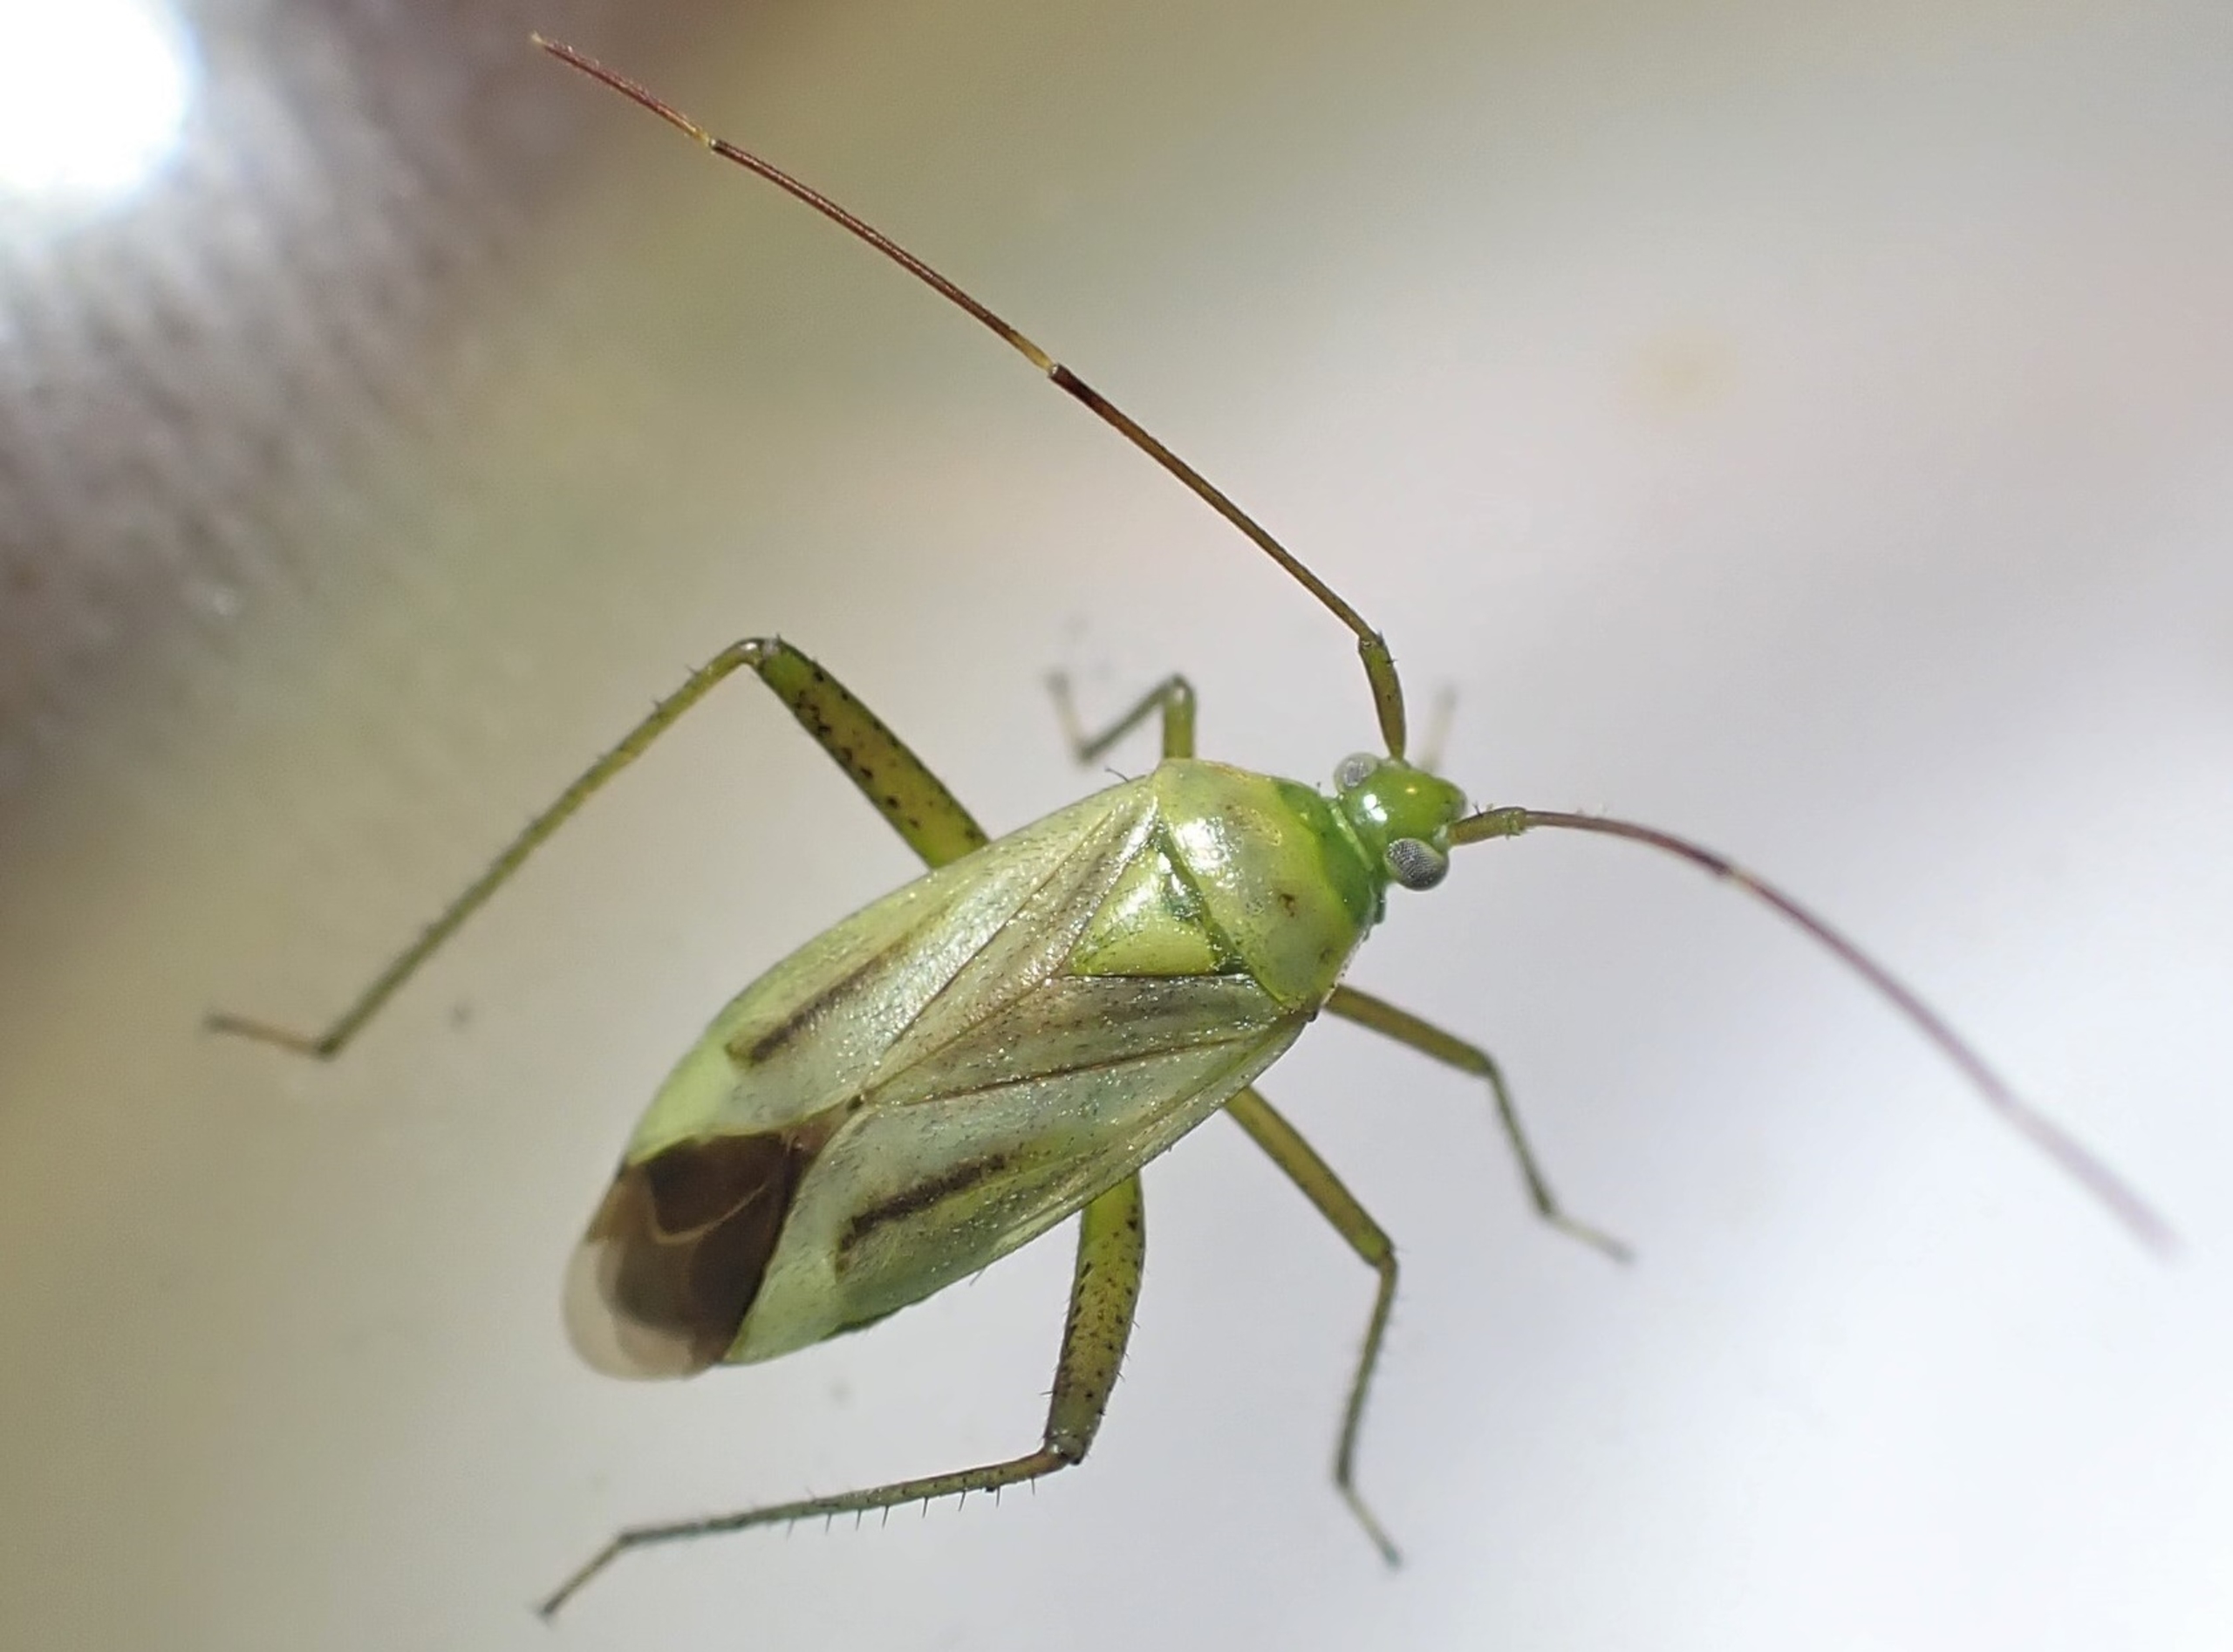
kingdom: Animalia
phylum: Arthropoda
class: Insecta
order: Hemiptera
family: Miridae
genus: Adelphocoris
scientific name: Adelphocoris quadripunctatus
